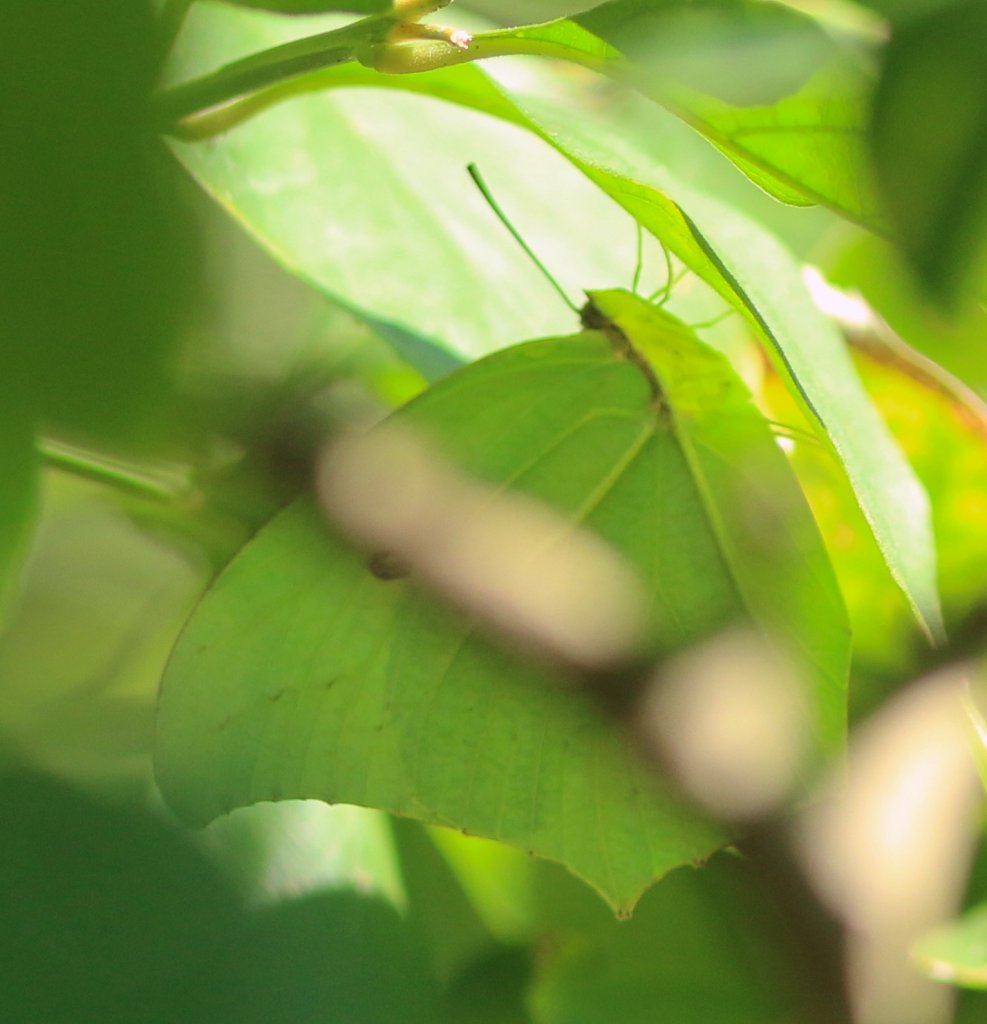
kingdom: Animalia
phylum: Arthropoda
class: Insecta
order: Lepidoptera
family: Pieridae
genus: Anteos
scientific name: Anteos maerula
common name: Yellow Angled-Sulphur
